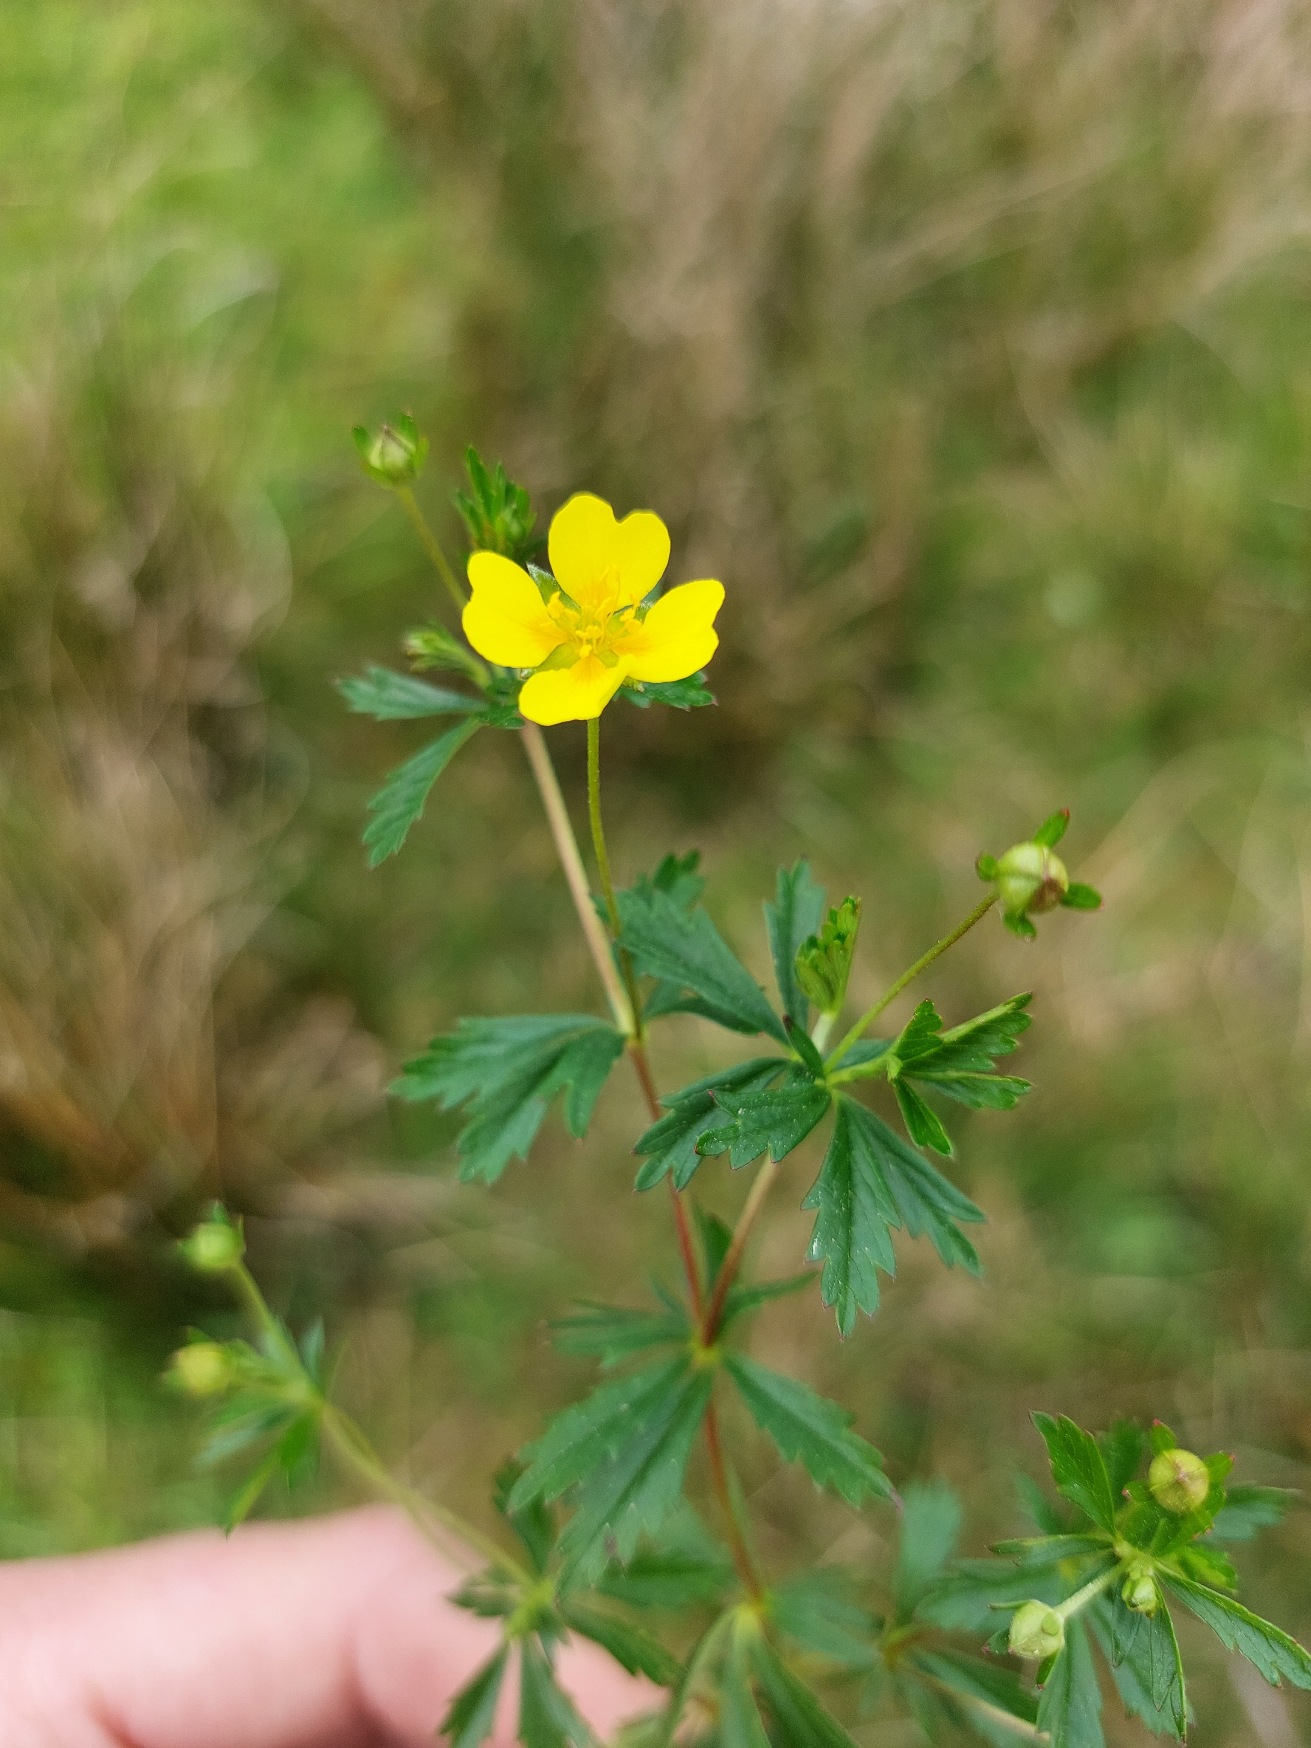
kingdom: Plantae
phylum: Tracheophyta
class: Magnoliopsida
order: Rosales
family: Rosaceae
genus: Potentilla
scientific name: Potentilla erecta
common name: Tormentil
